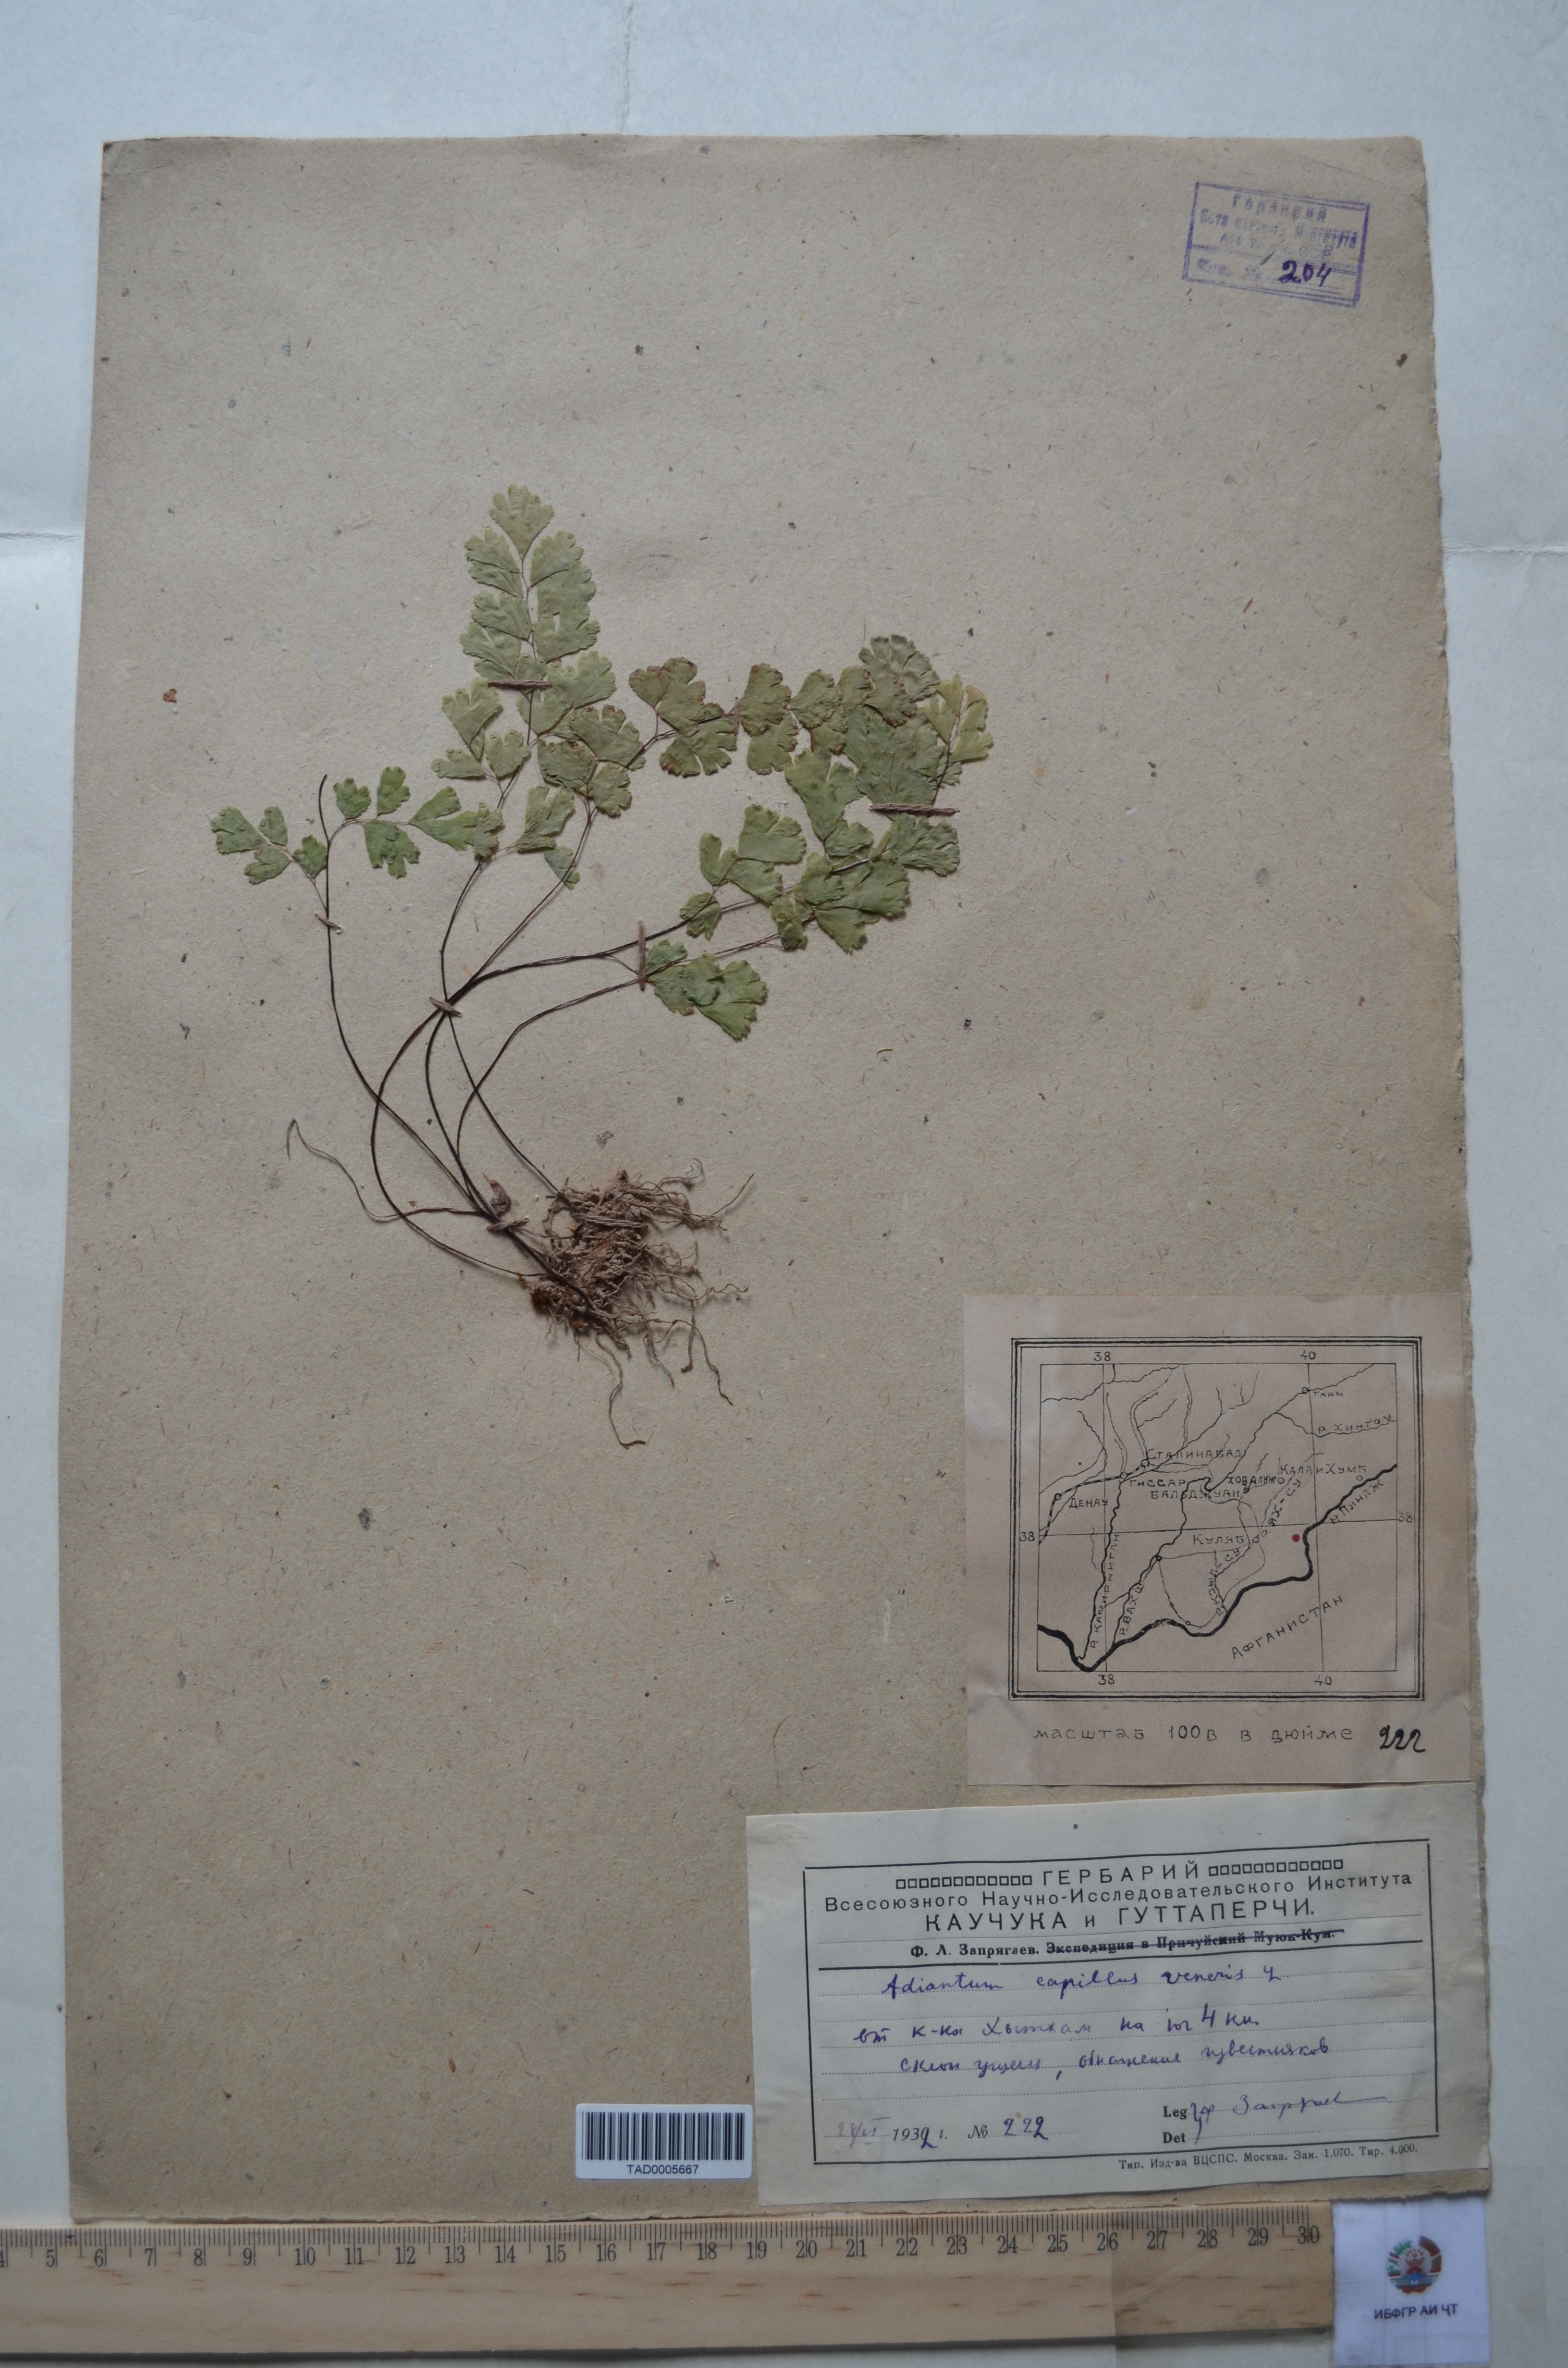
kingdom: Plantae
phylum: Tracheophyta
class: Polypodiopsida
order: Polypodiales
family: Pteridaceae
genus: Adiantum
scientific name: Adiantum capillus-veneris
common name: Maidenhair fern
